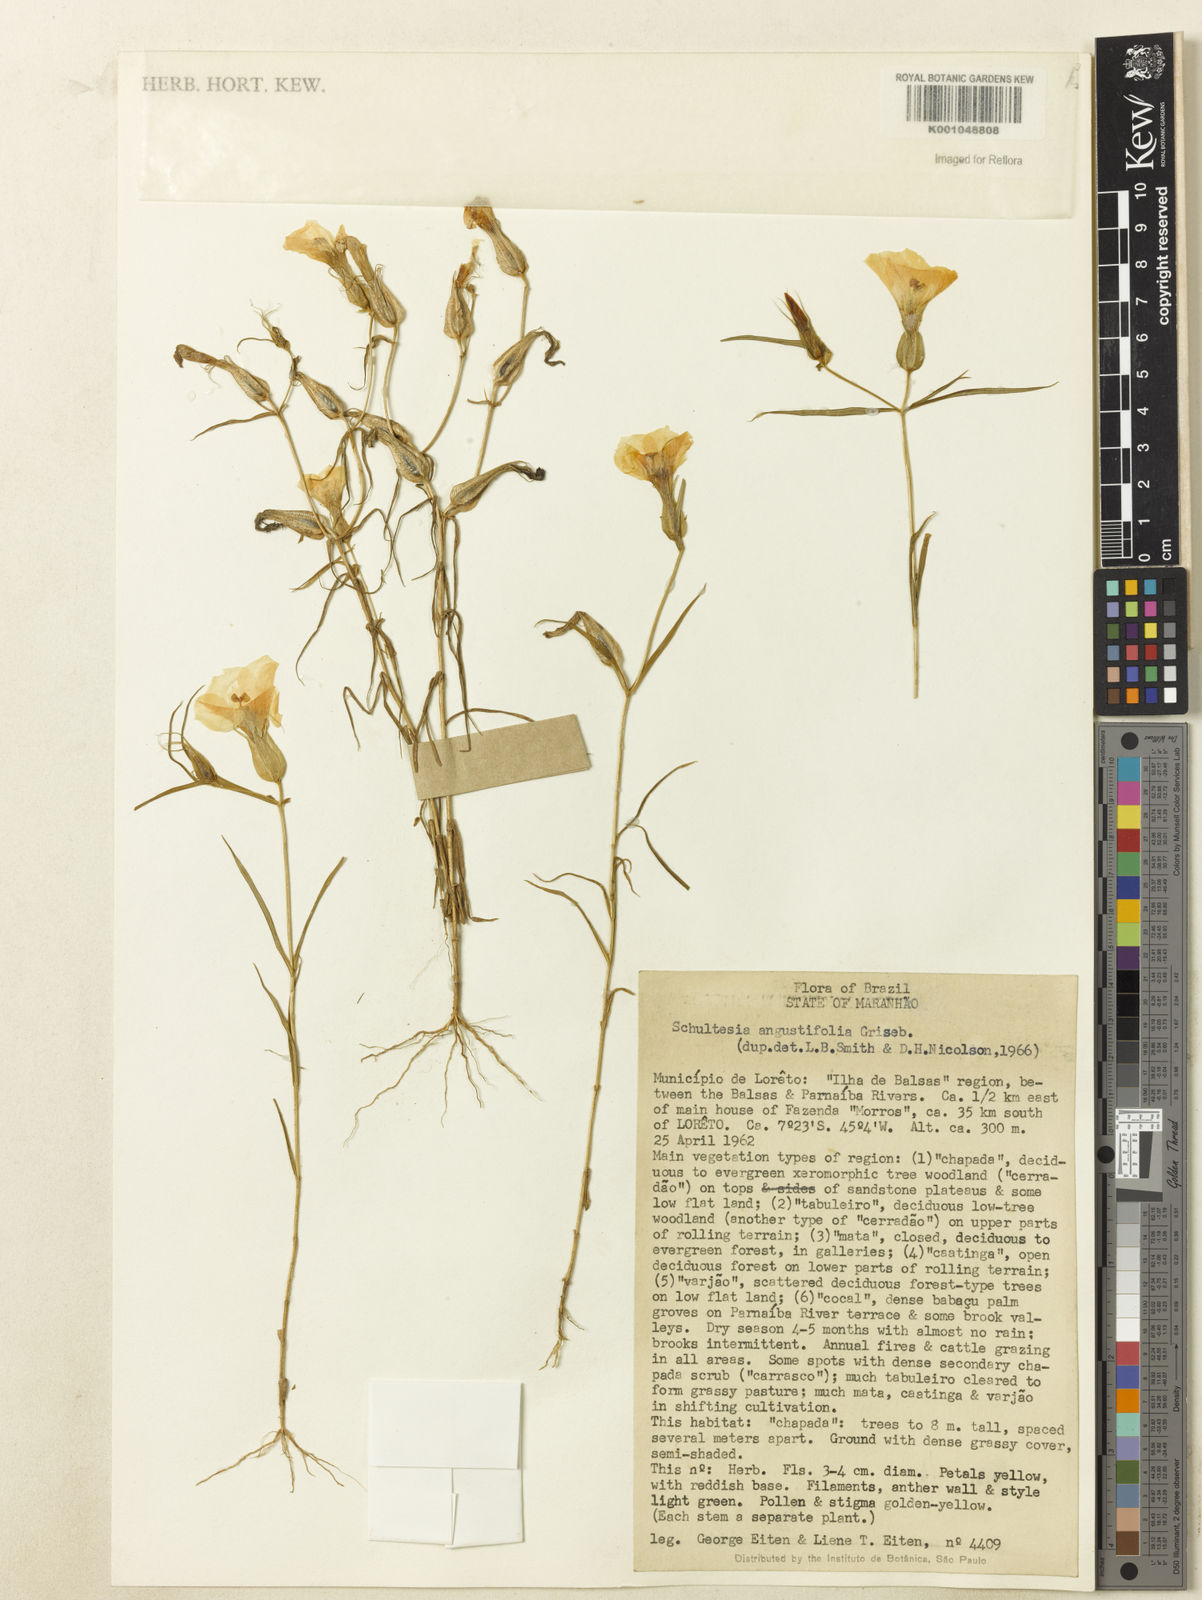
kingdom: Plantae
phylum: Tracheophyta
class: Magnoliopsida
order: Gentianales
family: Gentianaceae
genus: Schultesia
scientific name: Schultesia angustifolia
